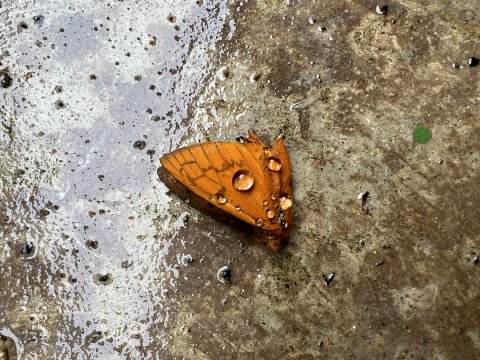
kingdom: Animalia
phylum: Arthropoda
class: Insecta
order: Lepidoptera
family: Hesperiidae
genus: Dyscophellus
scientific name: Dyscophellus porcius
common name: Fiery Scarlet-eye
